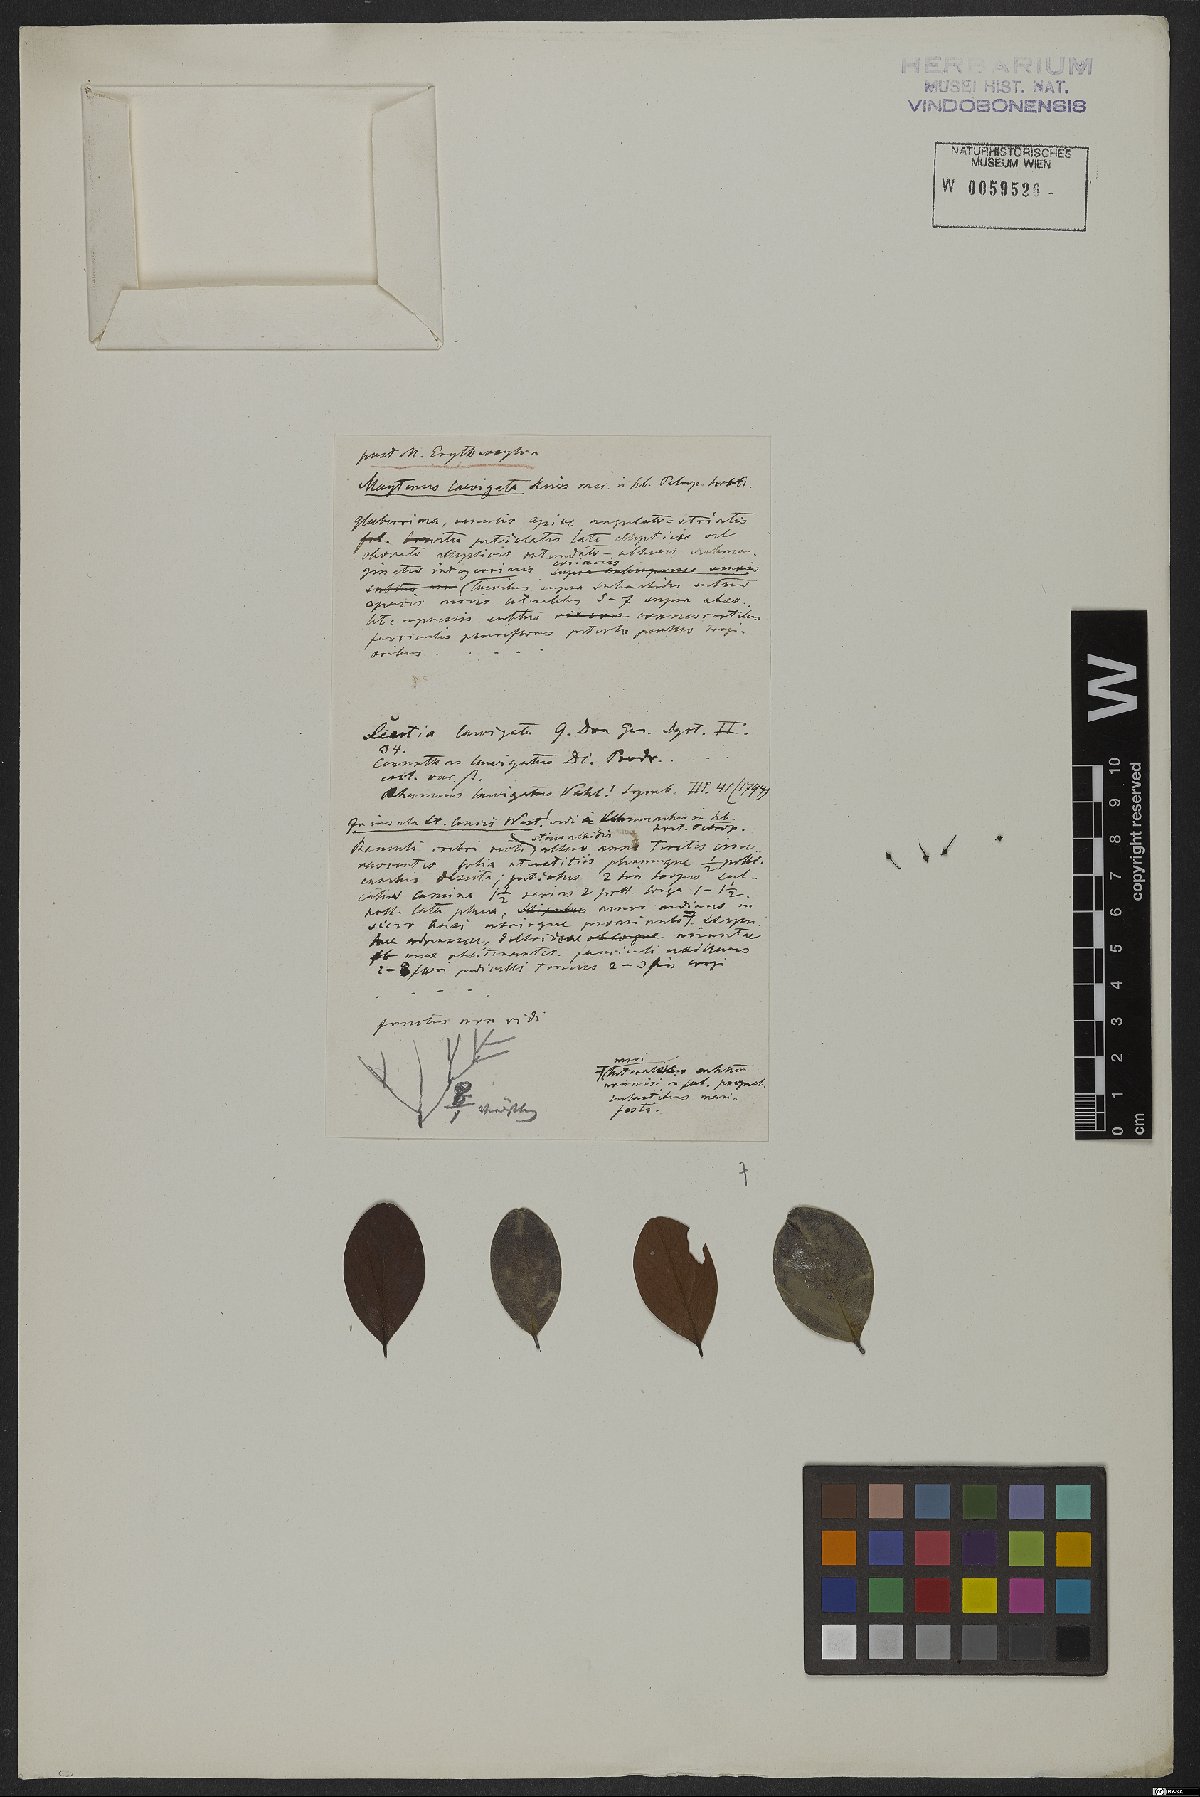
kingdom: Plantae
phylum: Tracheophyta
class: Magnoliopsida
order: Celastrales
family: Celastraceae
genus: Monteverdia
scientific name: Monteverdia erythroxylon
